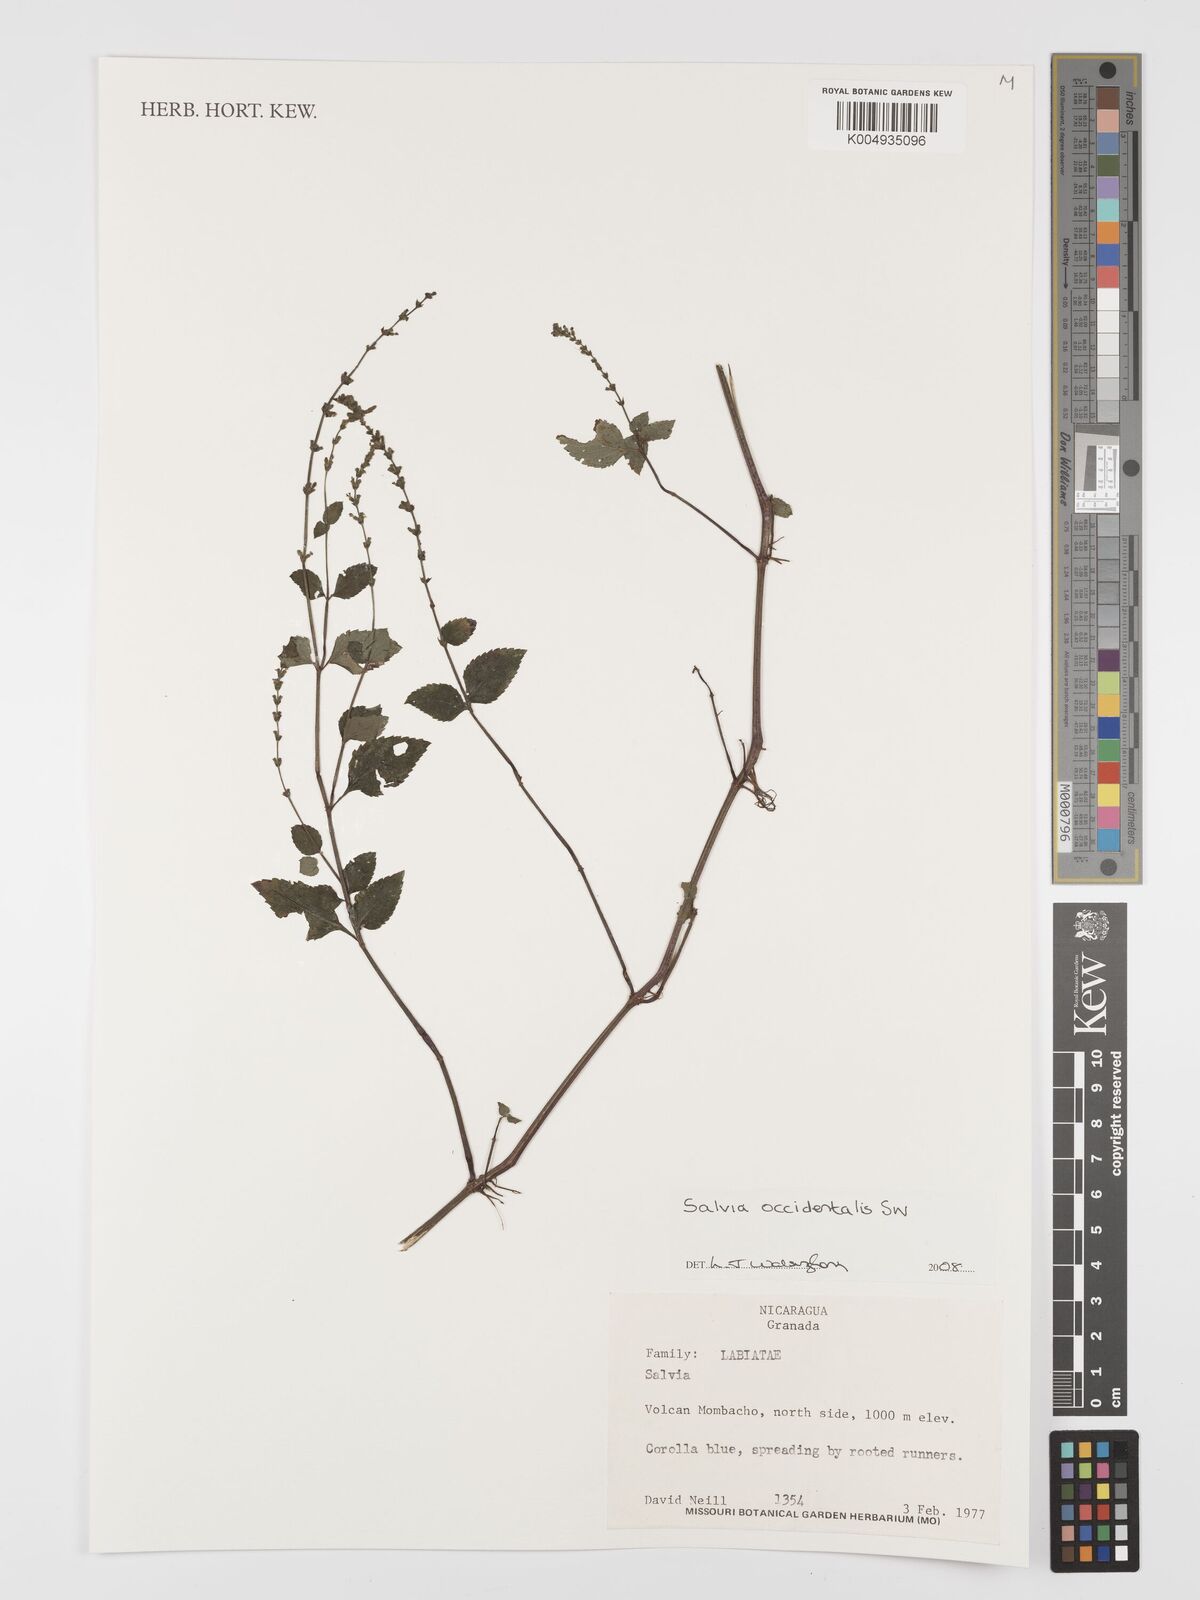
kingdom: Plantae
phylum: Tracheophyta
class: Magnoliopsida
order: Lamiales
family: Lamiaceae
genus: Salvia
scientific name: Salvia occidentalis
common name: West indian sage
